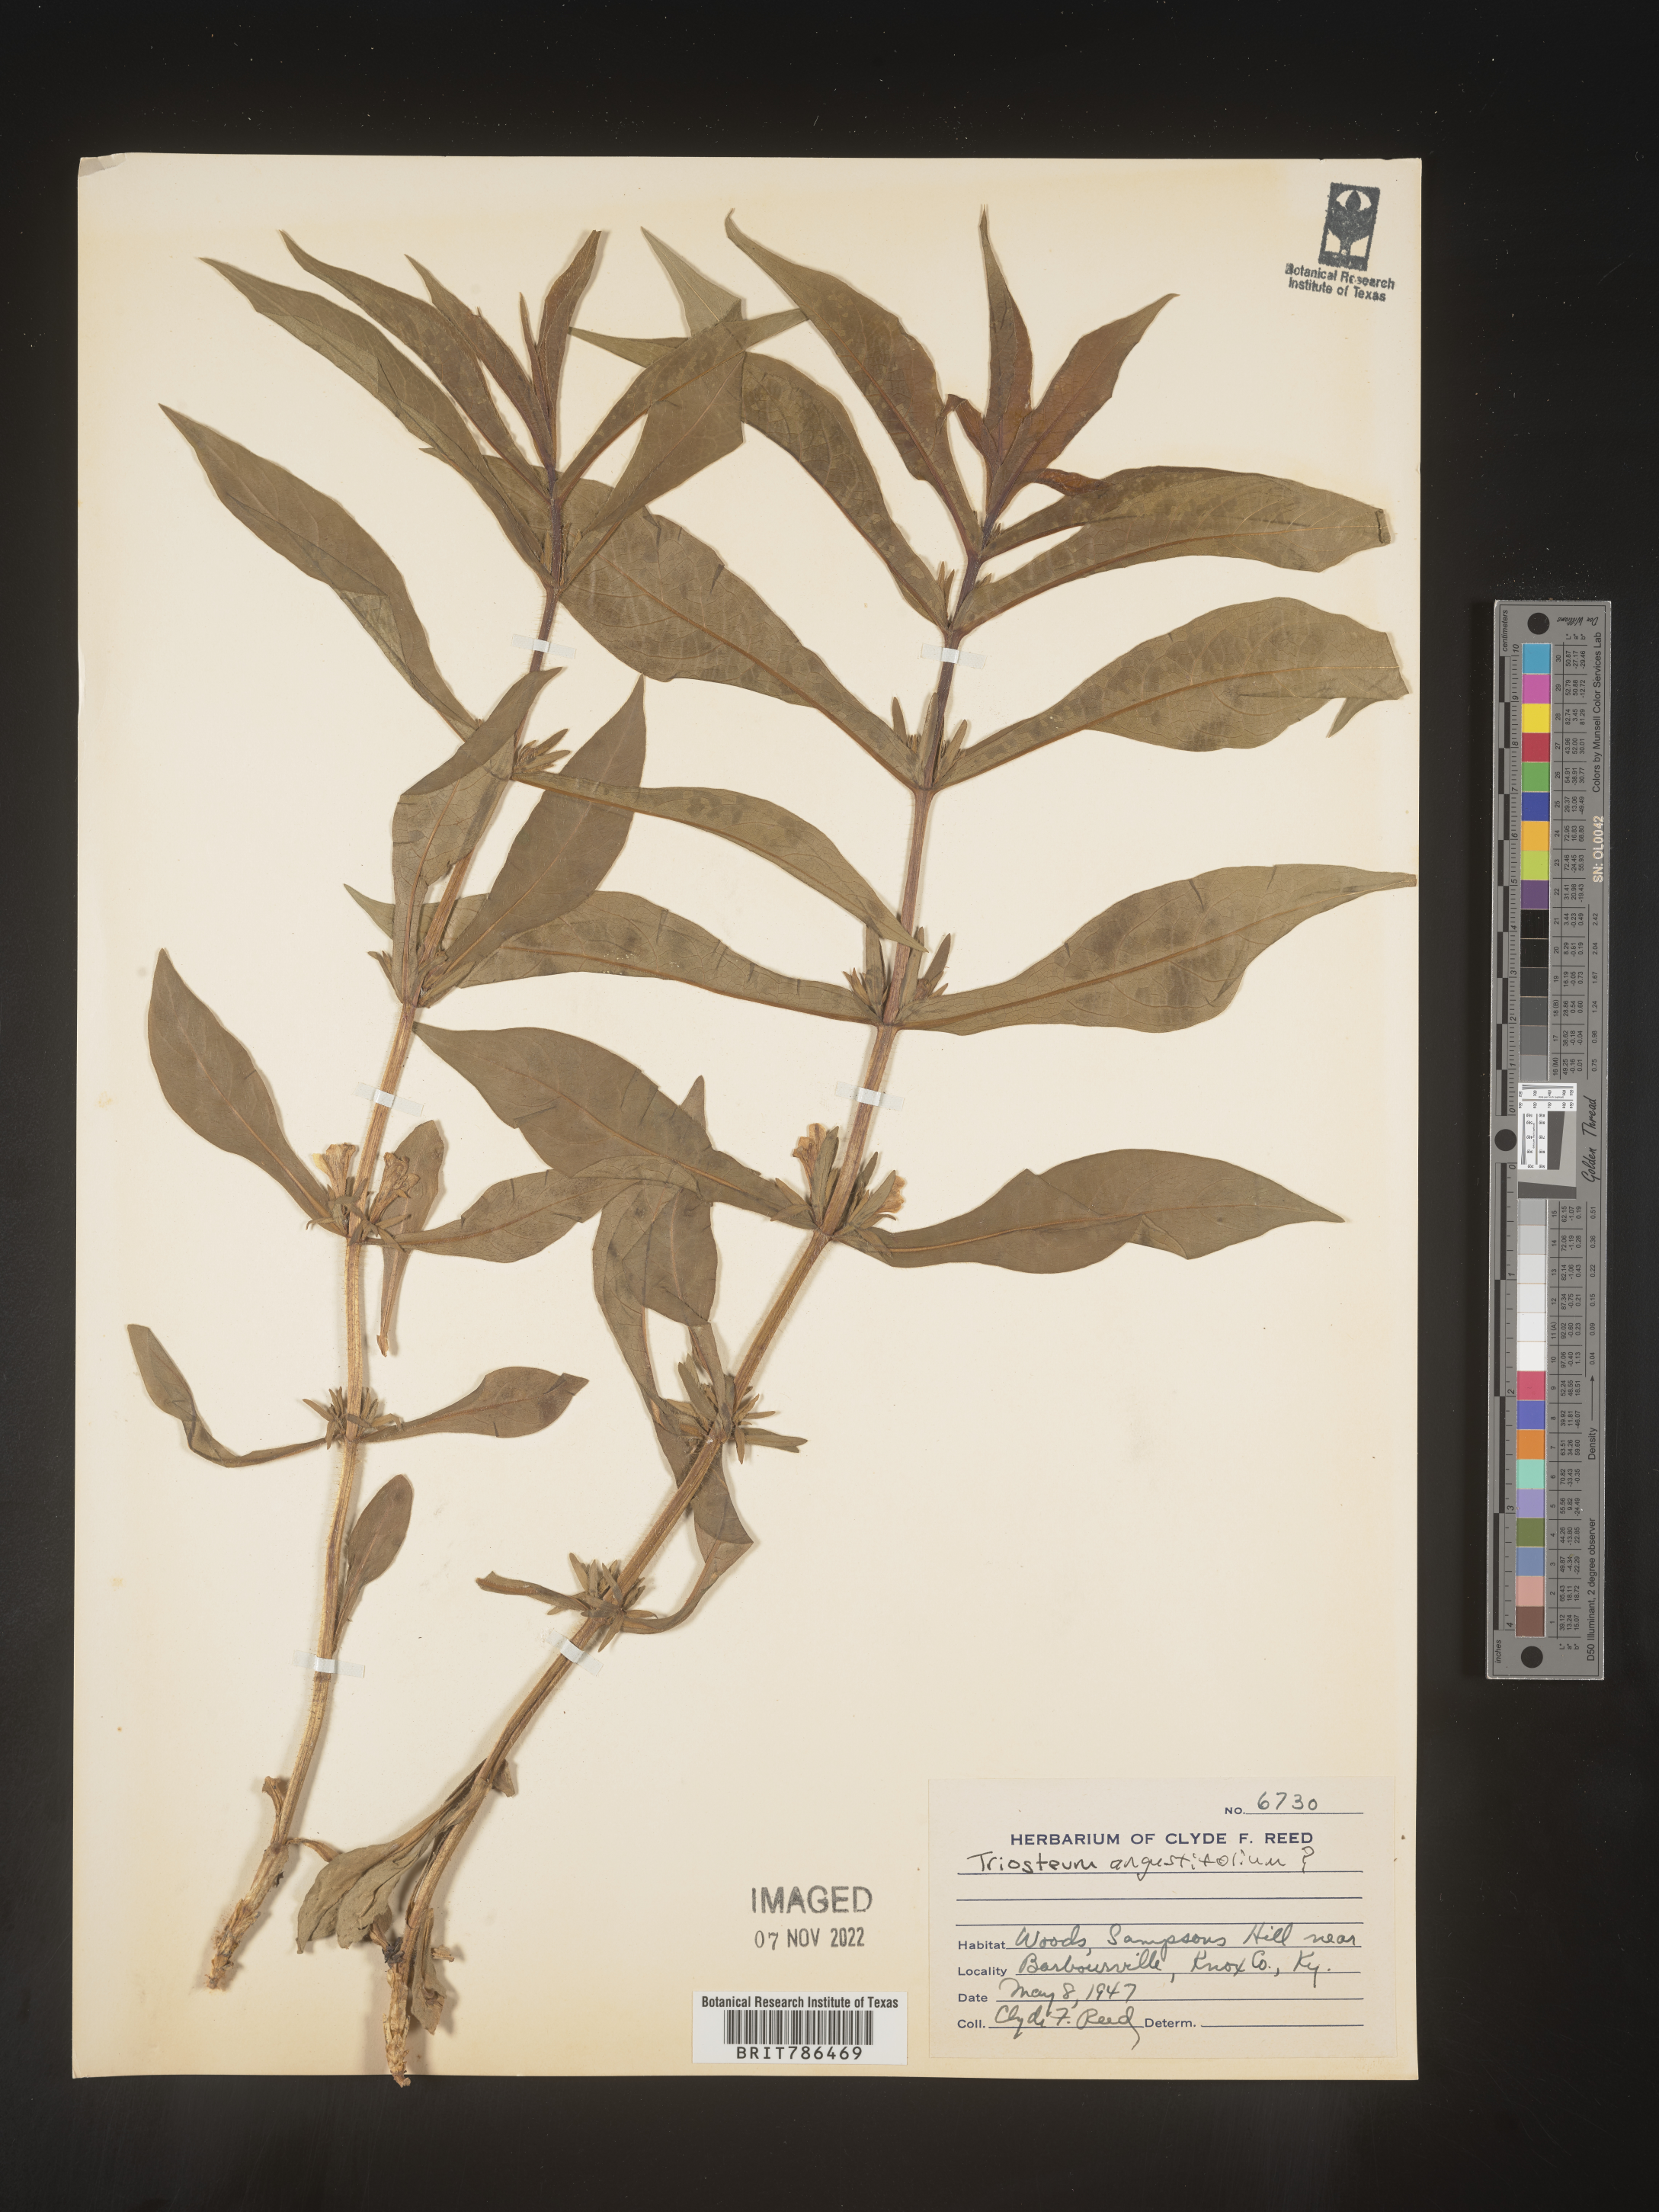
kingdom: Plantae
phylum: Tracheophyta
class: Magnoliopsida
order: Dipsacales
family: Caprifoliaceae
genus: Triosteum
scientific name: Triosteum angustifolium
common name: Narrow-leaved horse-gentian
